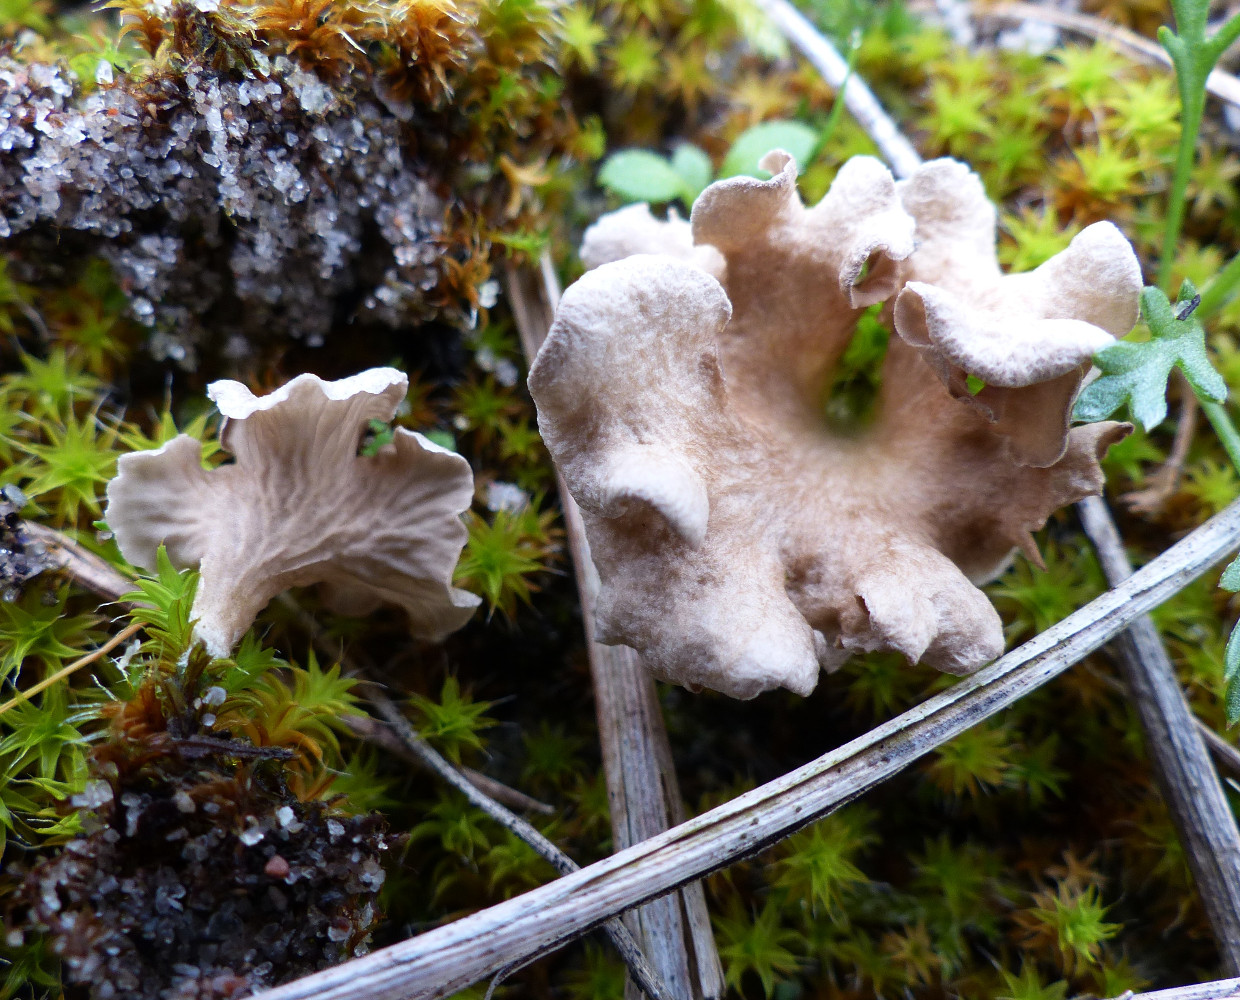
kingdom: Fungi
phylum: Basidiomycota
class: Agaricomycetes
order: Agaricales
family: Hygrophoraceae
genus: Arrhenia
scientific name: Arrhenia spathulata
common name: skæv fontænehat
